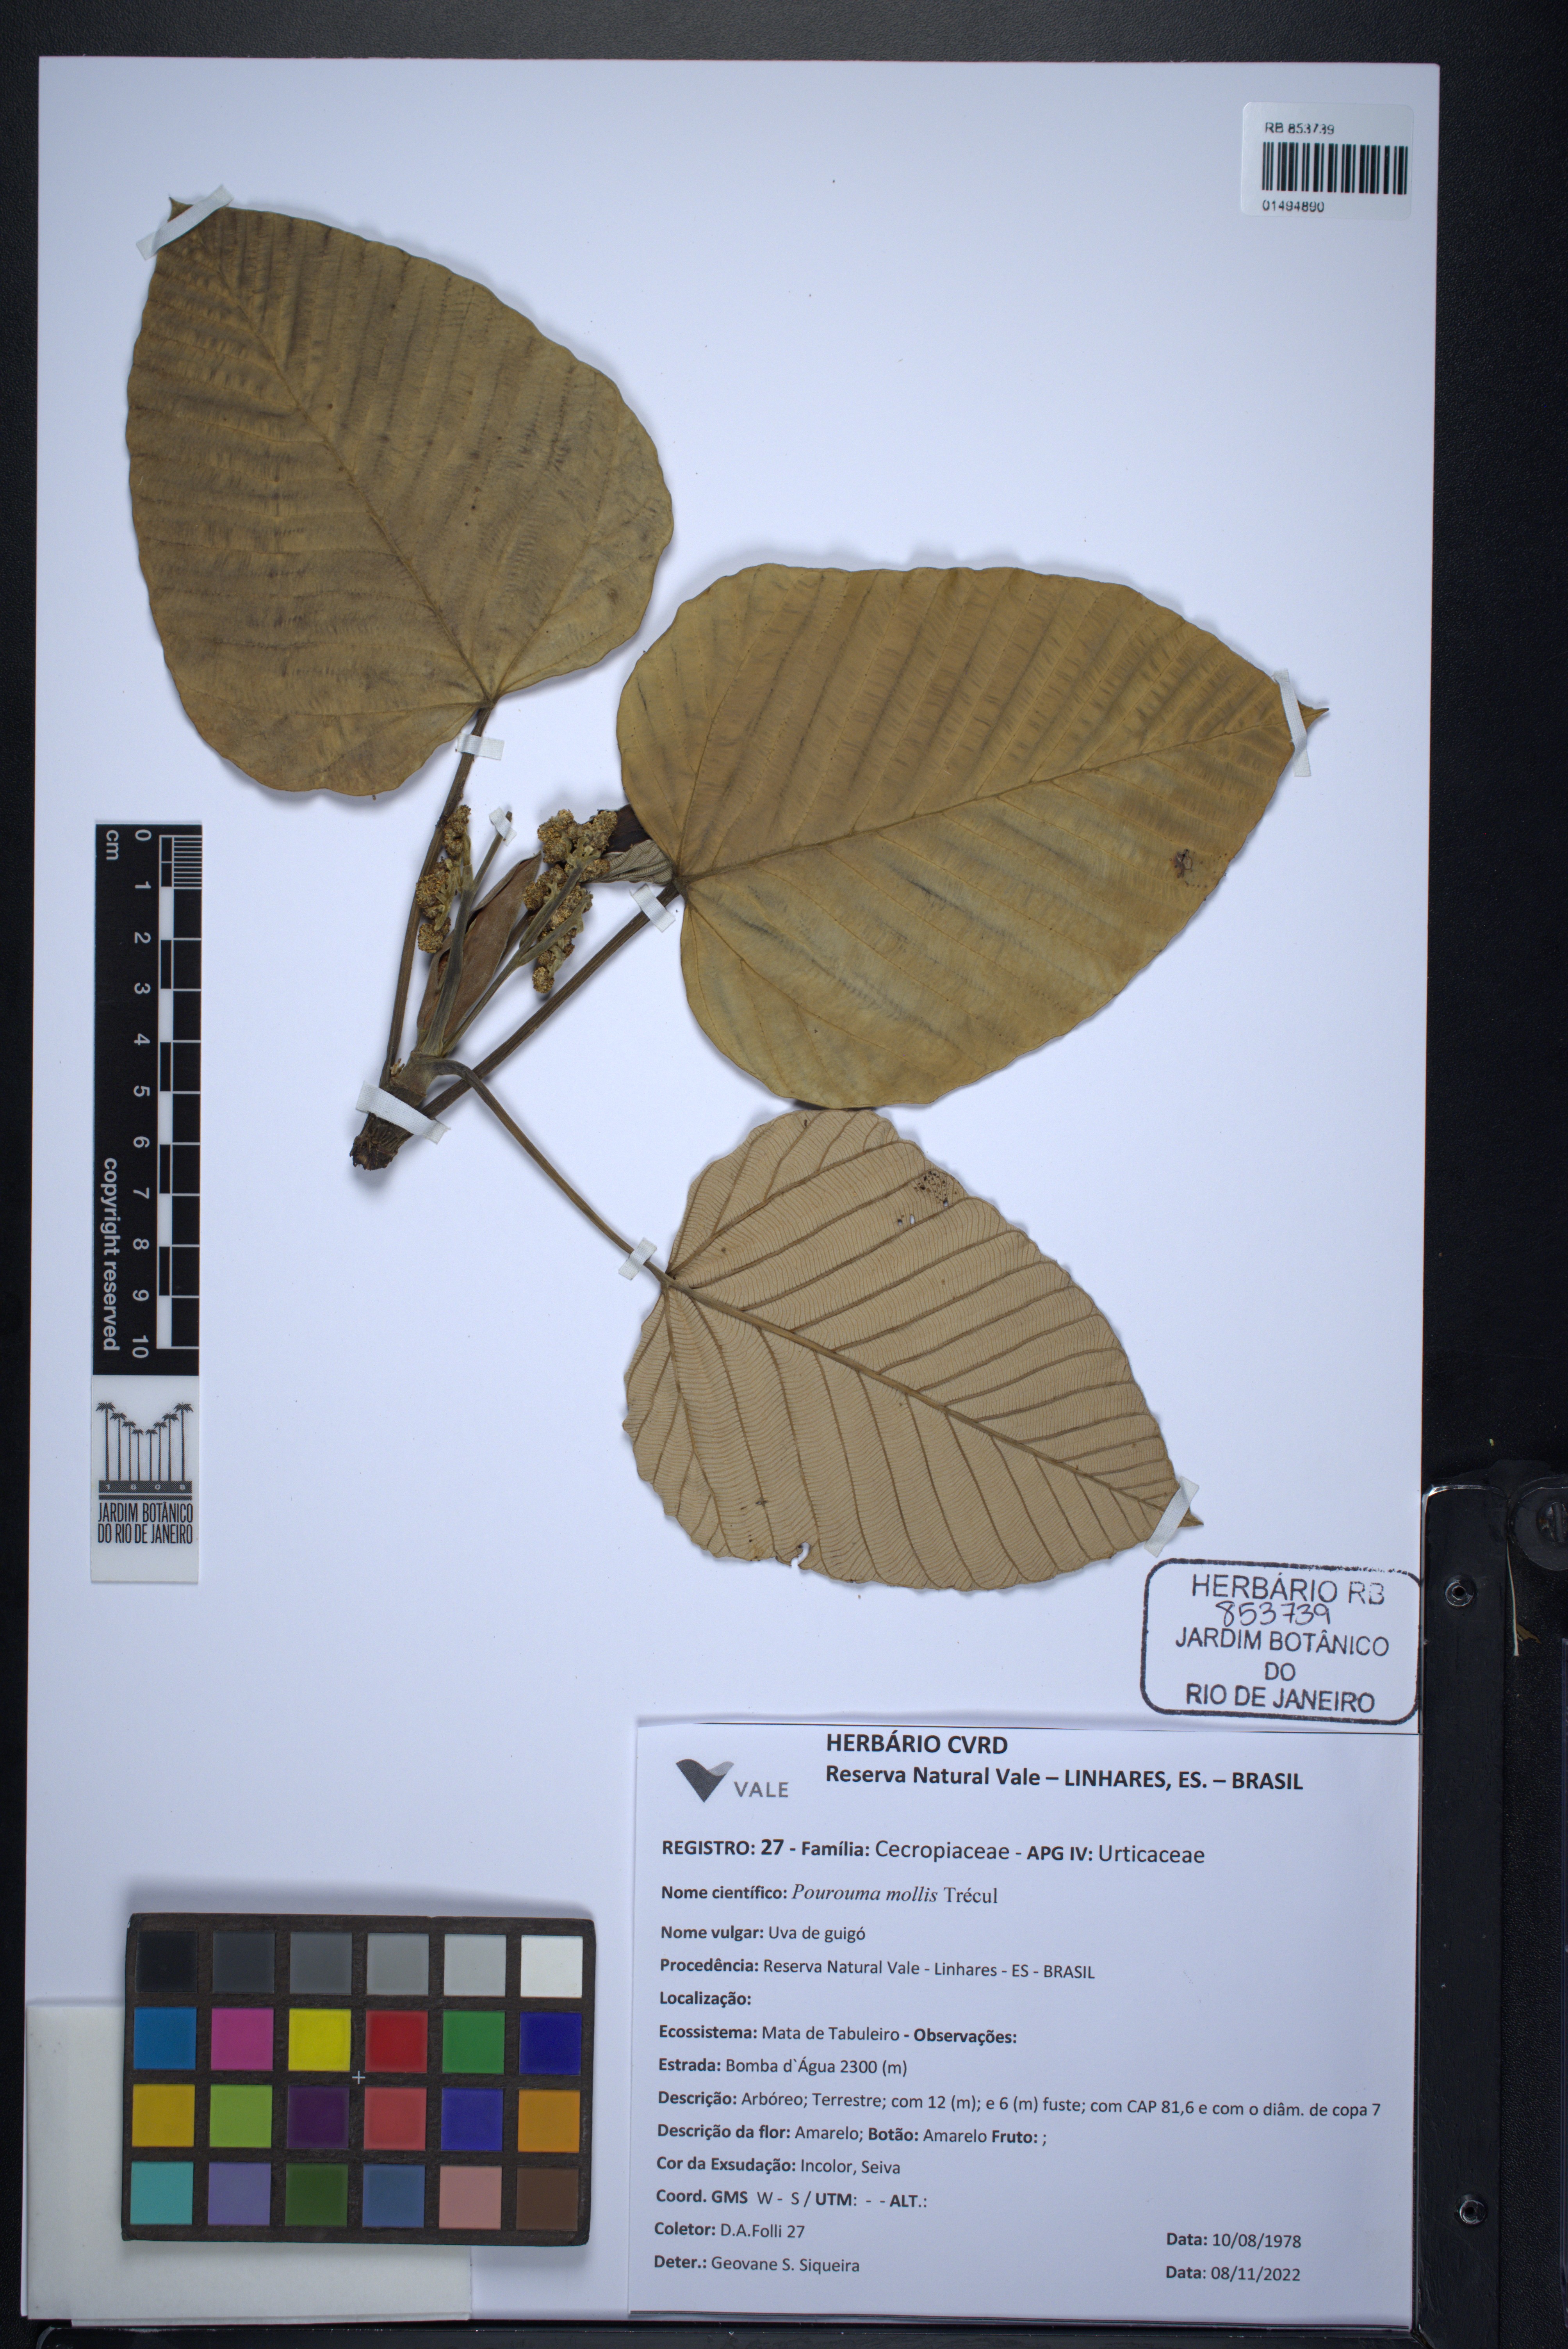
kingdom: Plantae
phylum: Tracheophyta
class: Magnoliopsida
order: Rosales
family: Urticaceae
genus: Pourouma
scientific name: Pourouma mollis
